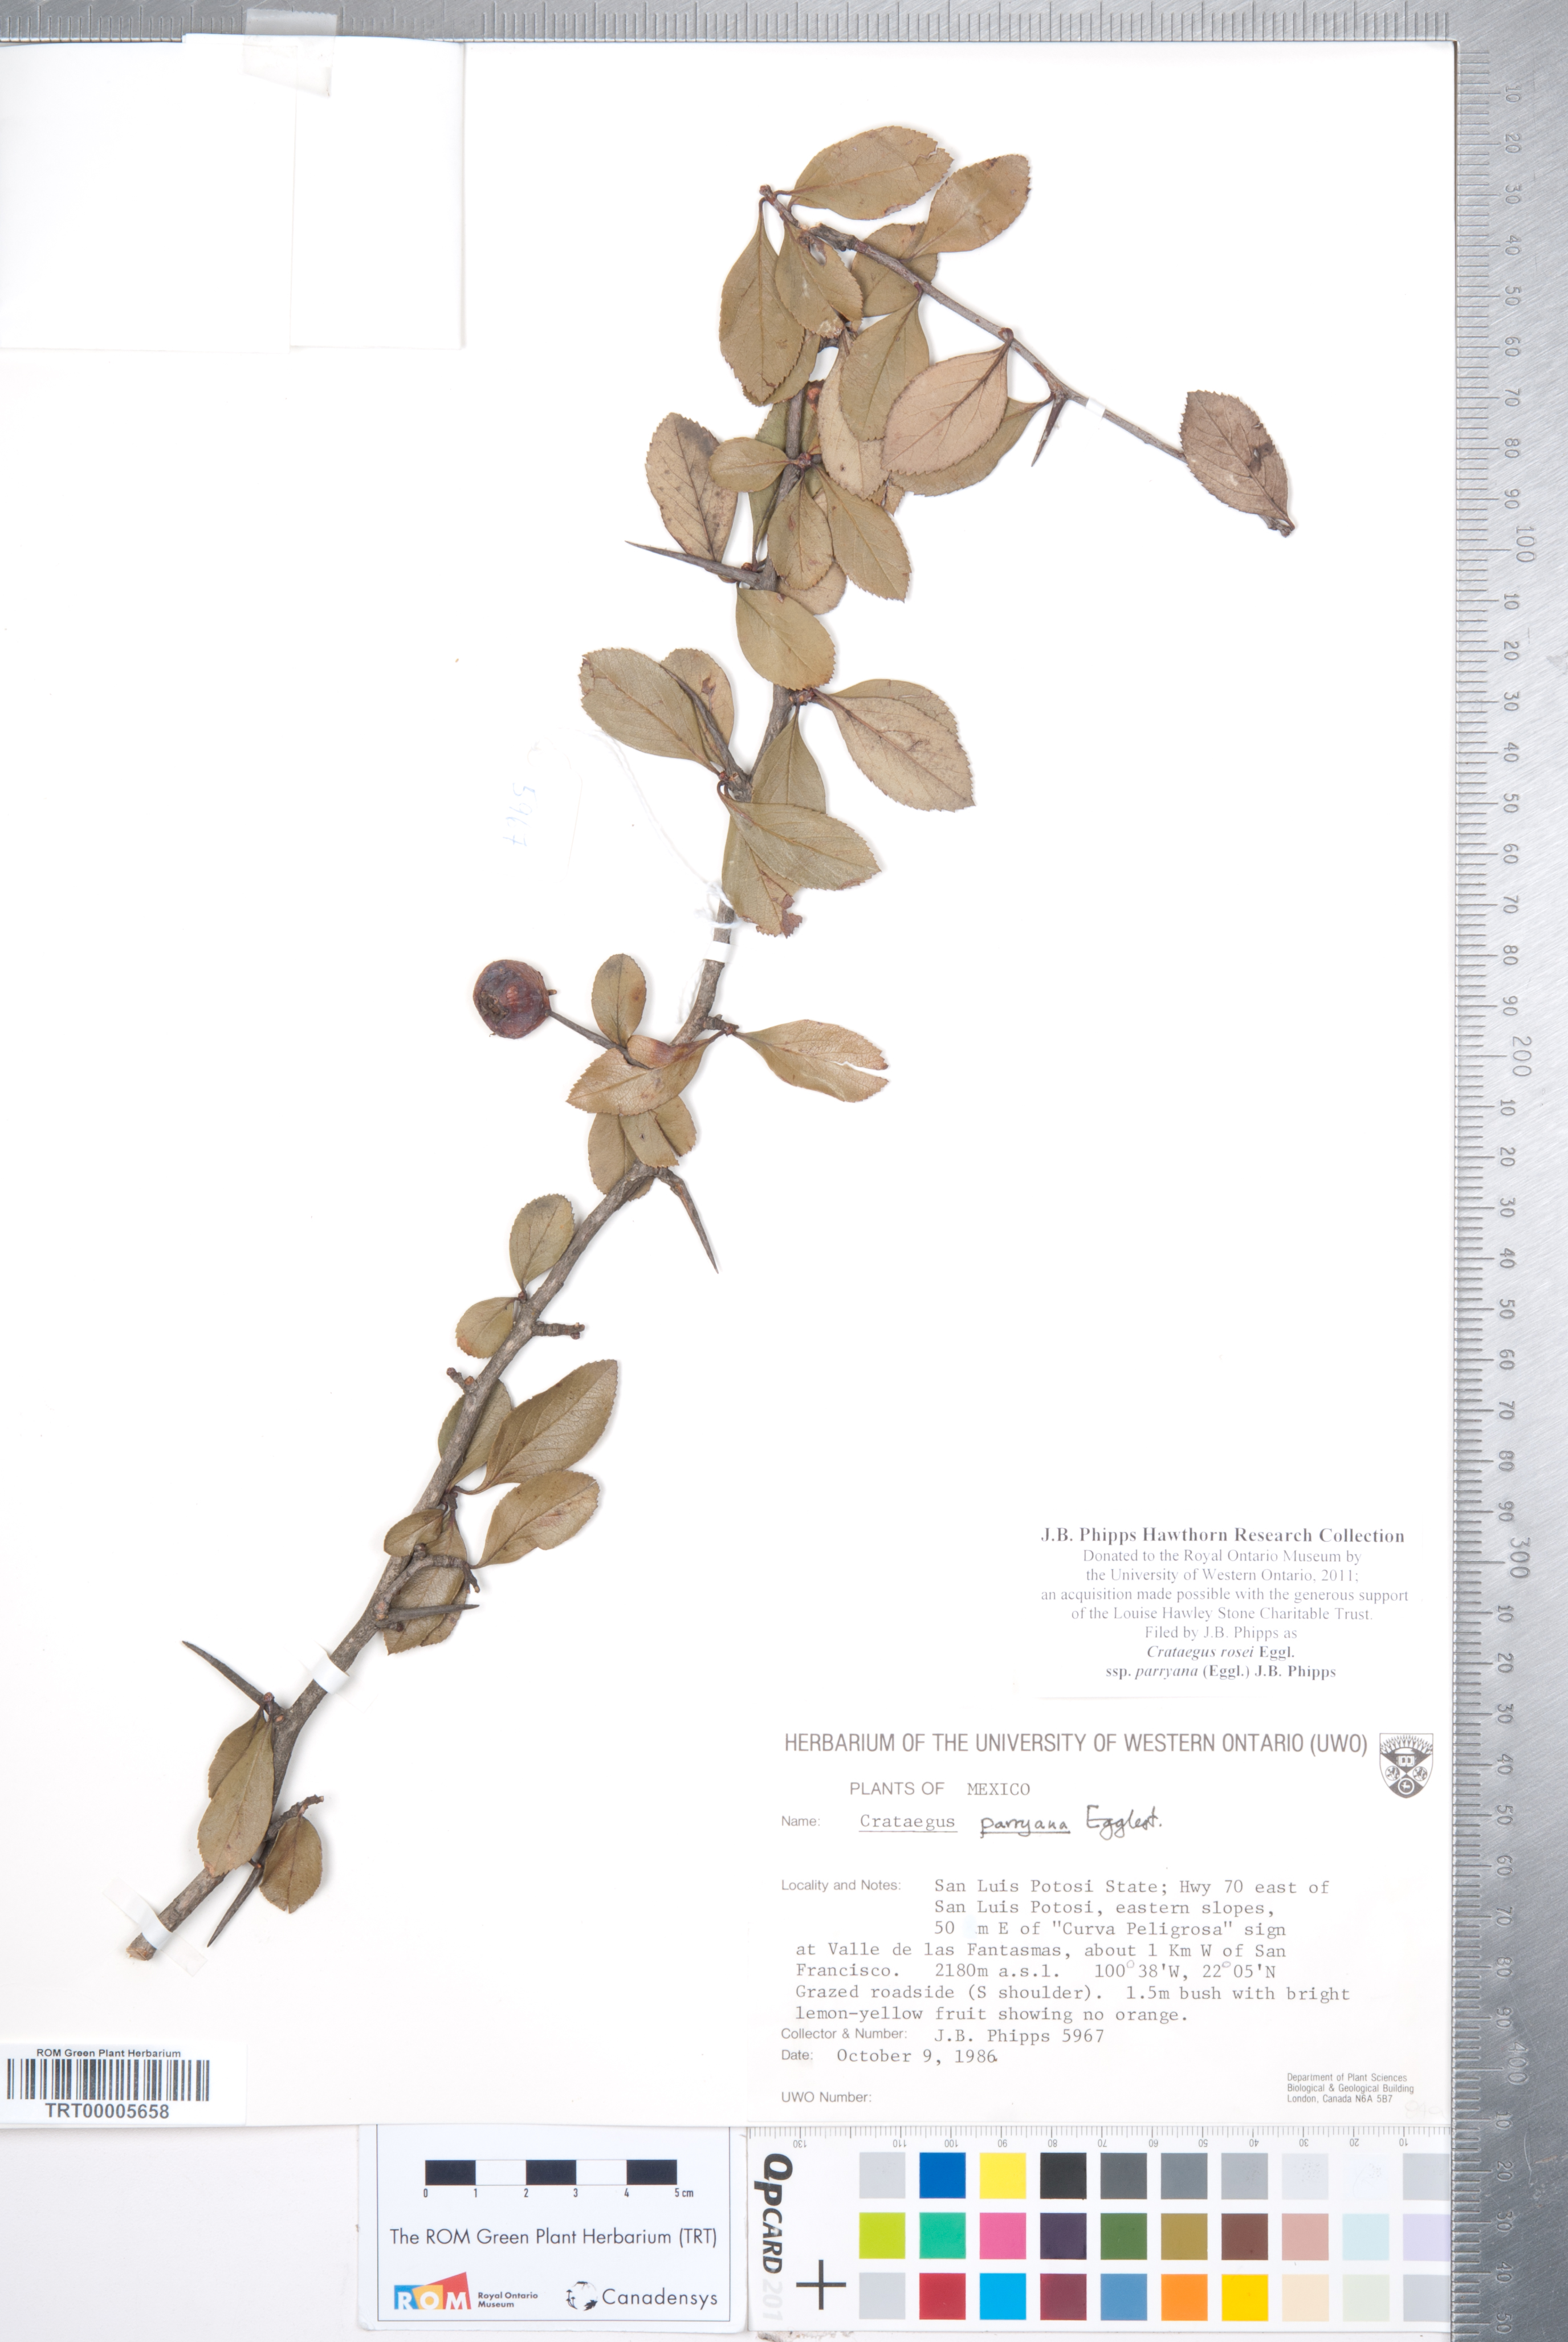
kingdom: Plantae
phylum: Tracheophyta
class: Magnoliopsida
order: Rosales
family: Rosaceae
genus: Crataegus
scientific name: Crataegus rosei
